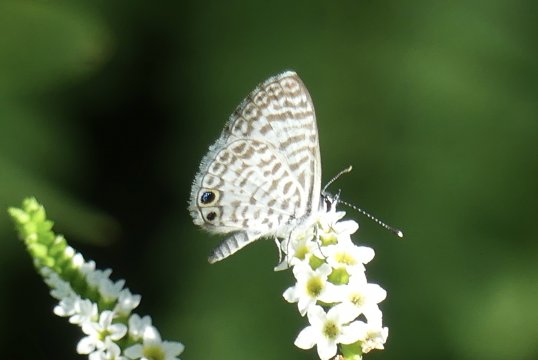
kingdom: Animalia
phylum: Arthropoda
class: Insecta
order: Lepidoptera
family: Lycaenidae
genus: Leptotes
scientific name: Leptotes cassius
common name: Cassius Blue
